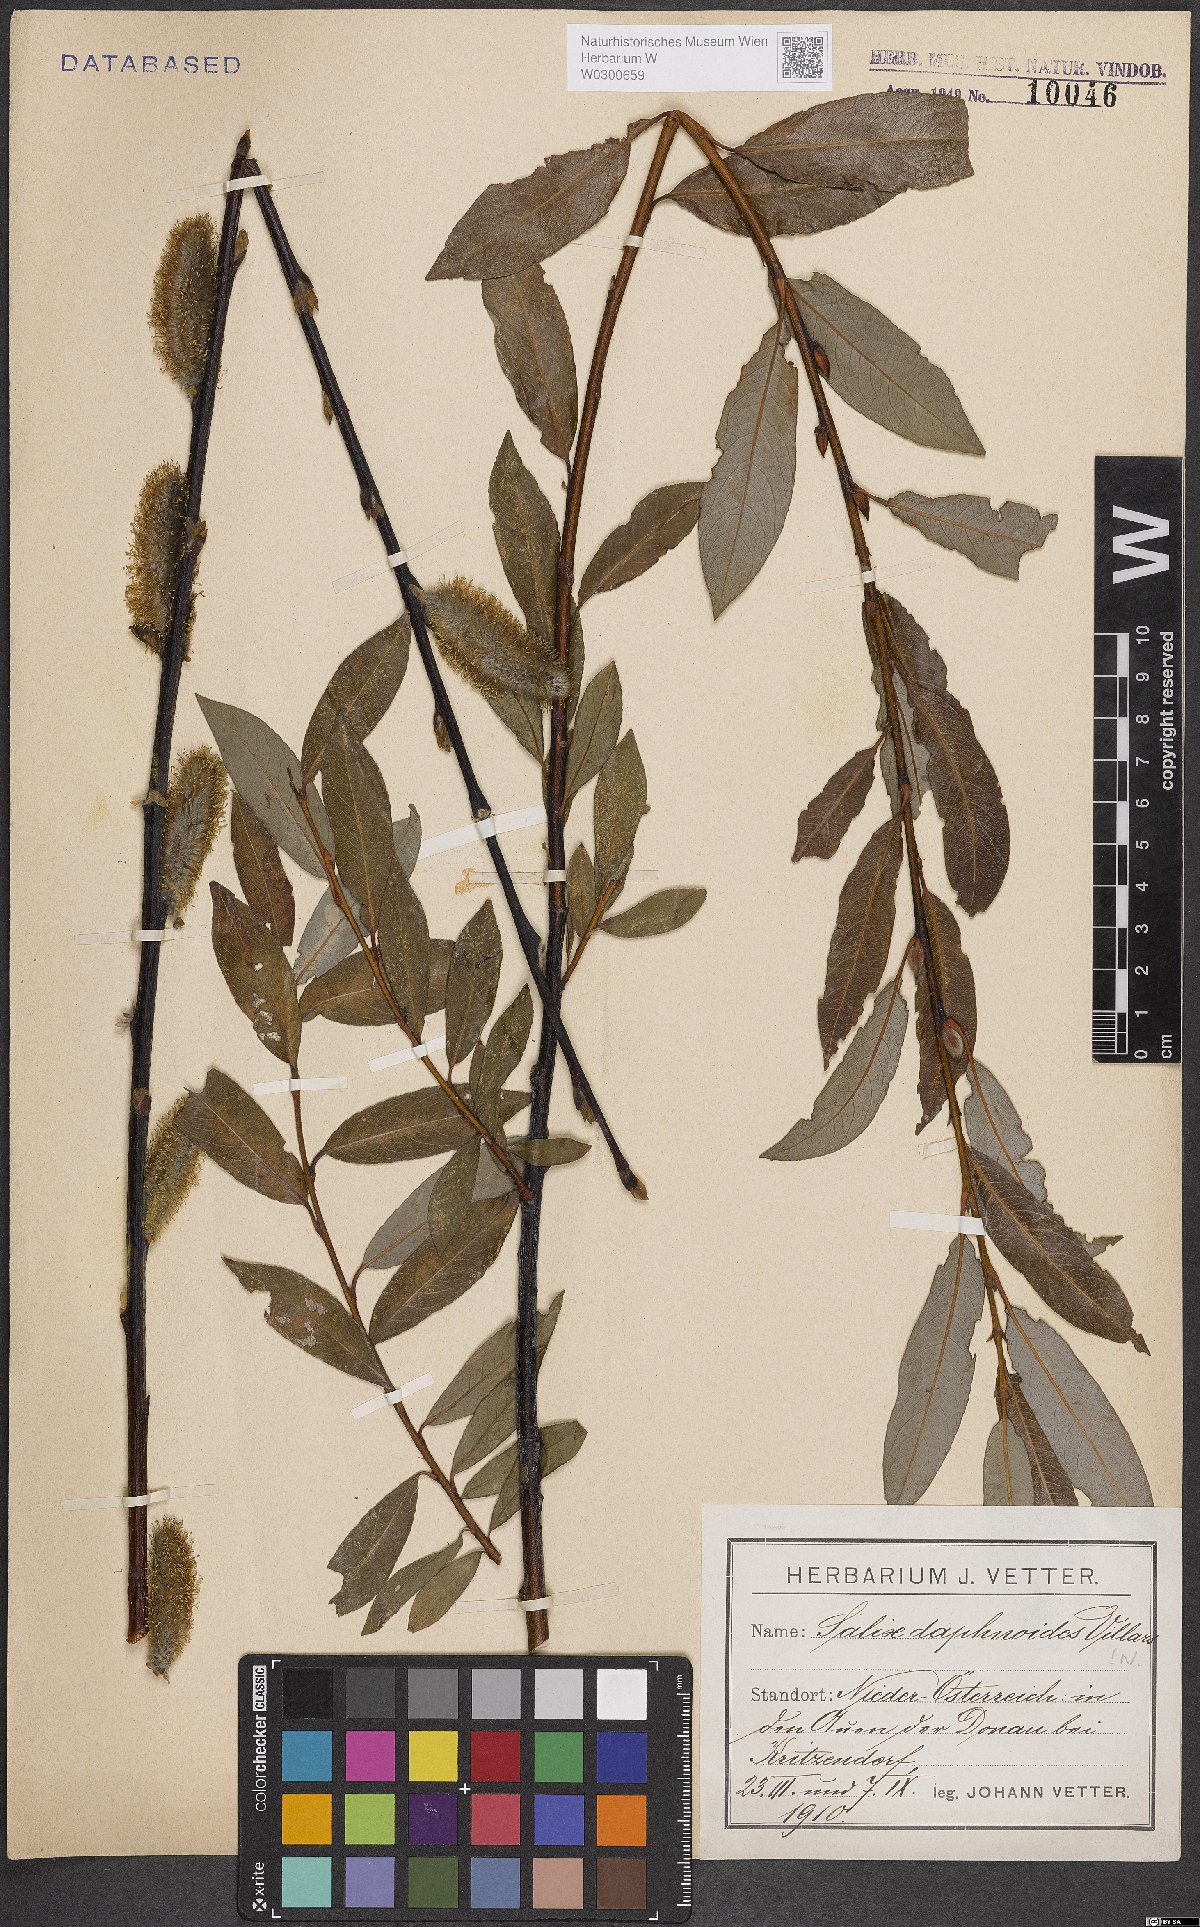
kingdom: Plantae
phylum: Tracheophyta
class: Magnoliopsida
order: Malpighiales
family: Salicaceae
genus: Salix
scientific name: Salix daphnoides
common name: European violet-willow
